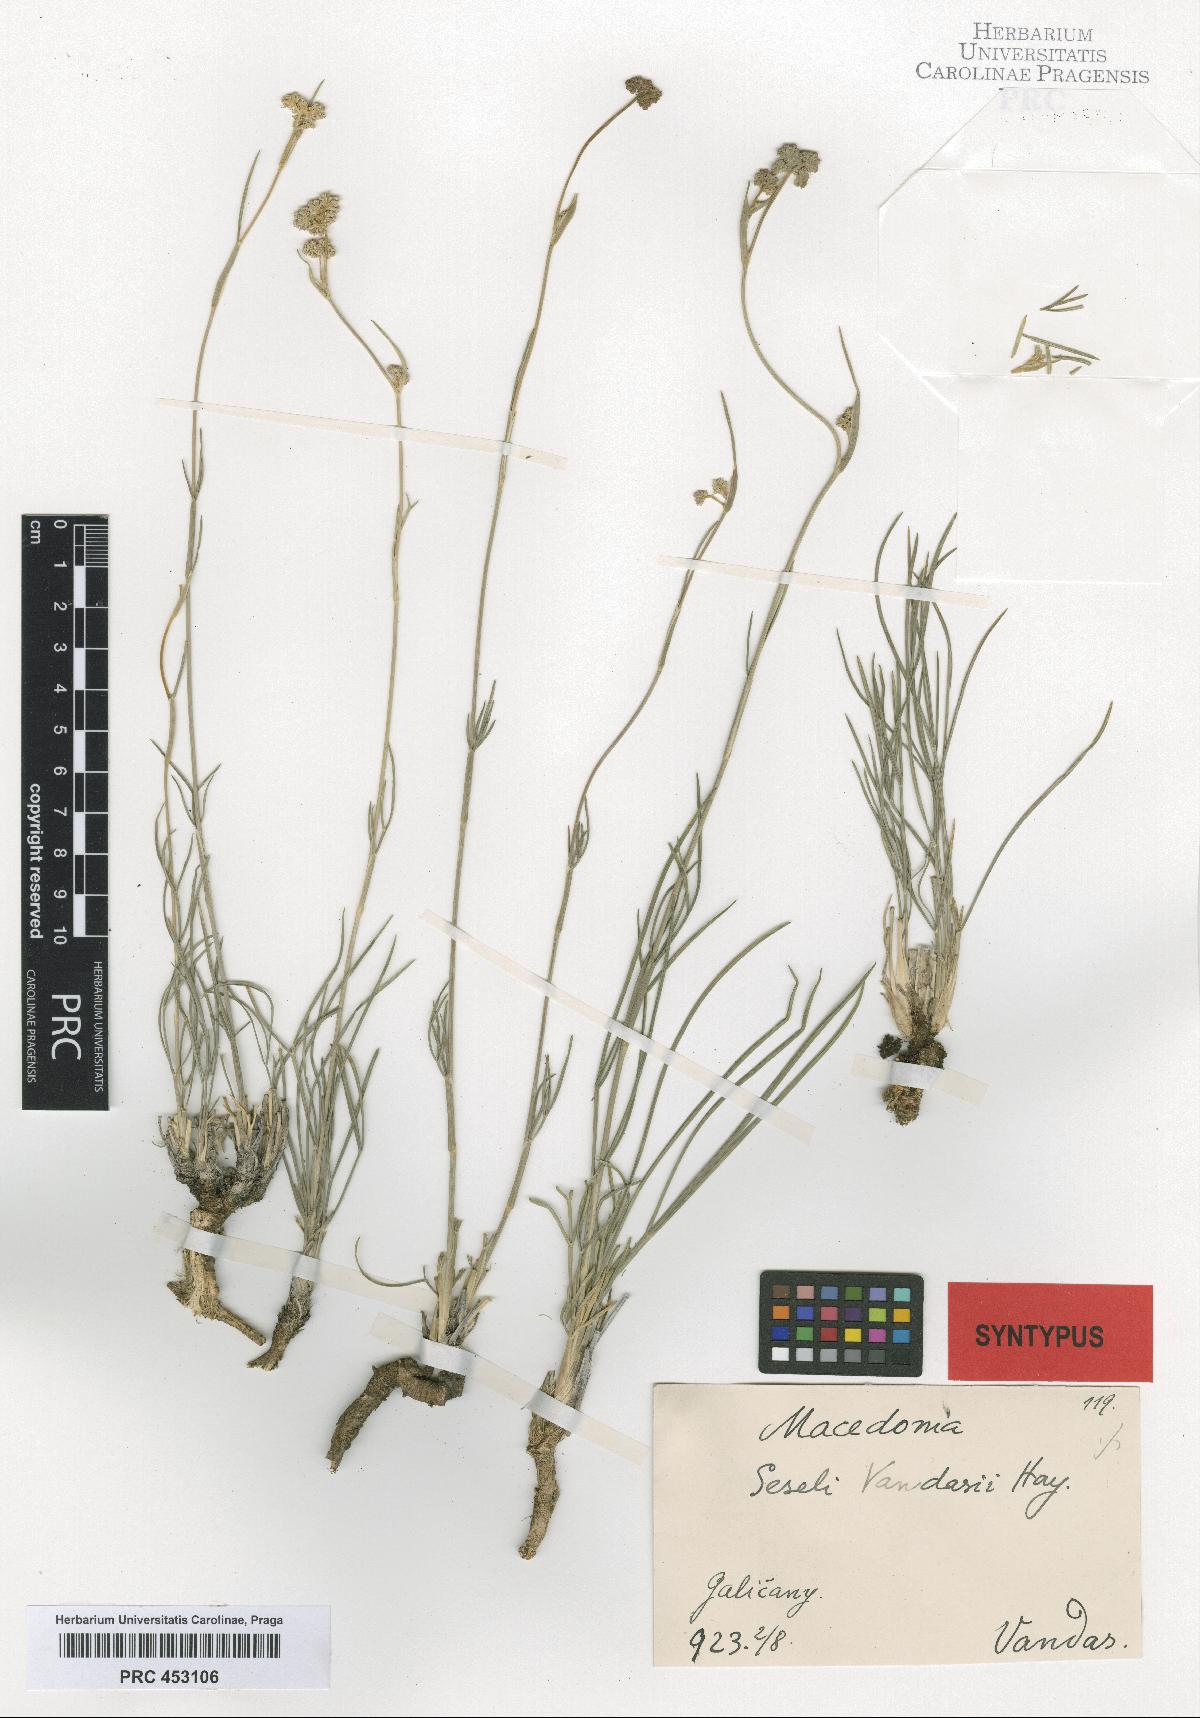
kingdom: Plantae
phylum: Tracheophyta
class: Magnoliopsida
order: Apiales
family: Apiaceae
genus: Seseli
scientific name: Seseli vandasii
